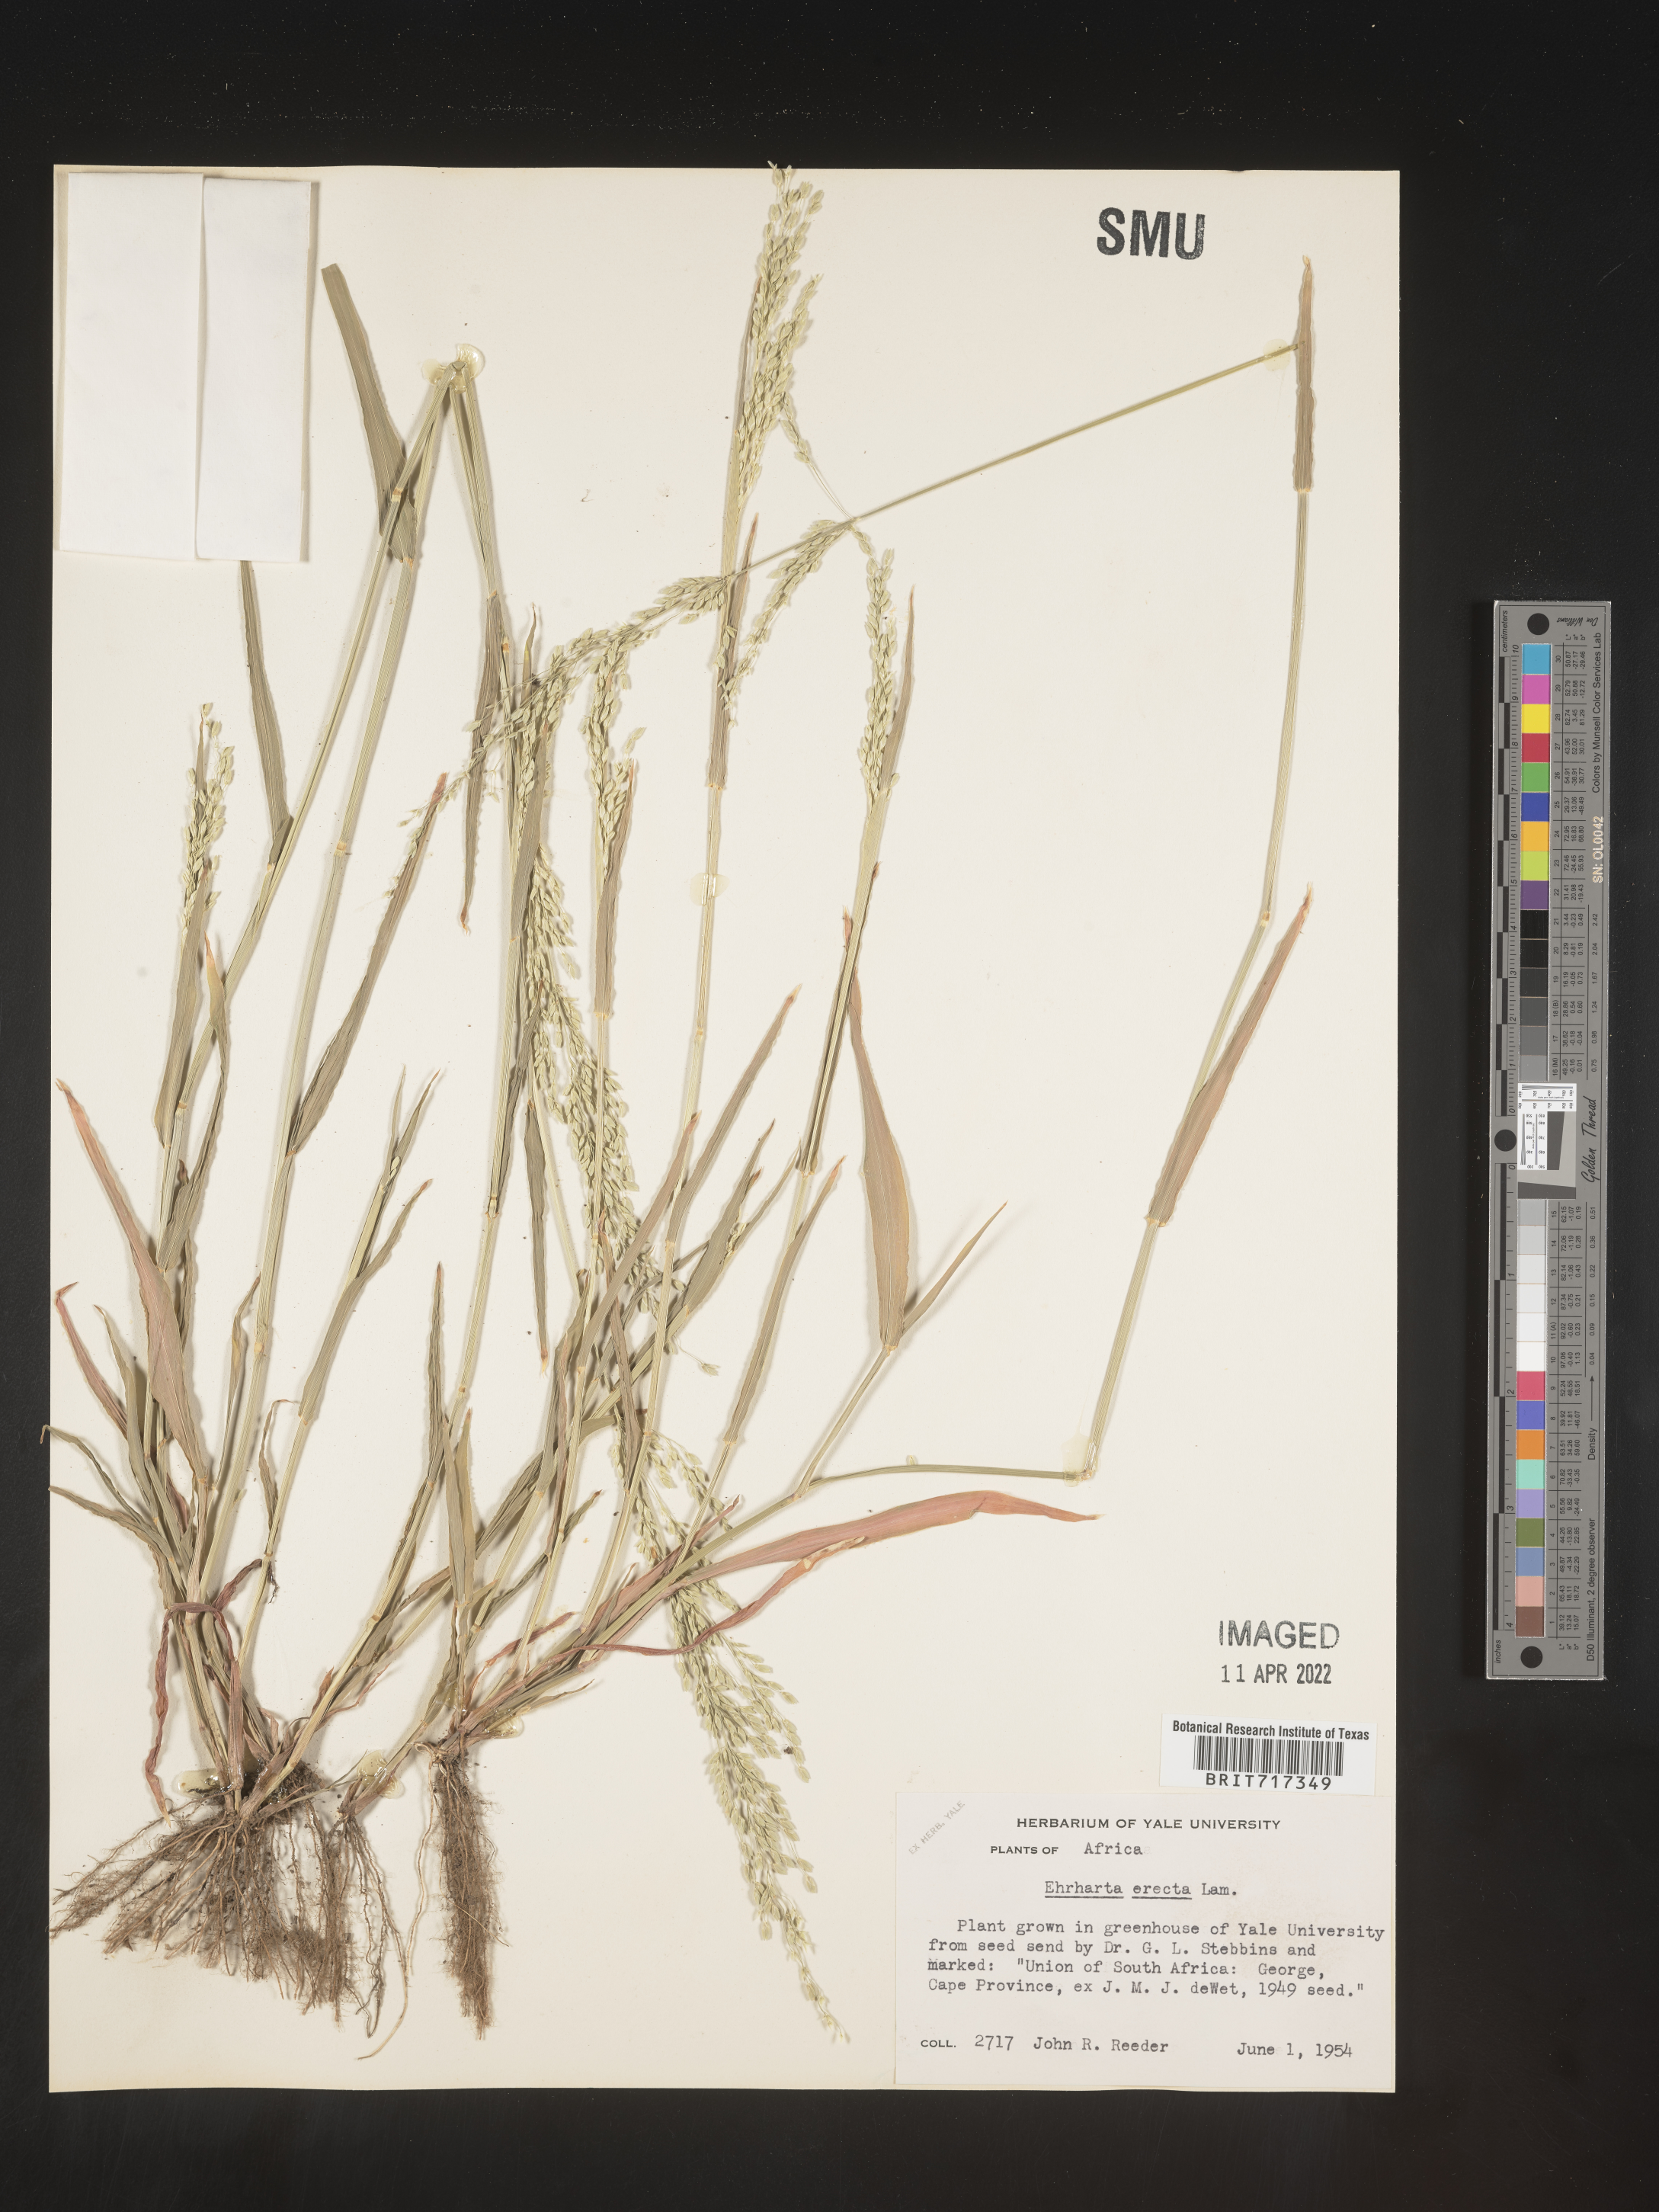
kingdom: Plantae
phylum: Tracheophyta
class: Liliopsida
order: Poales
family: Poaceae
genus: Ehrharta
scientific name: Ehrharta
